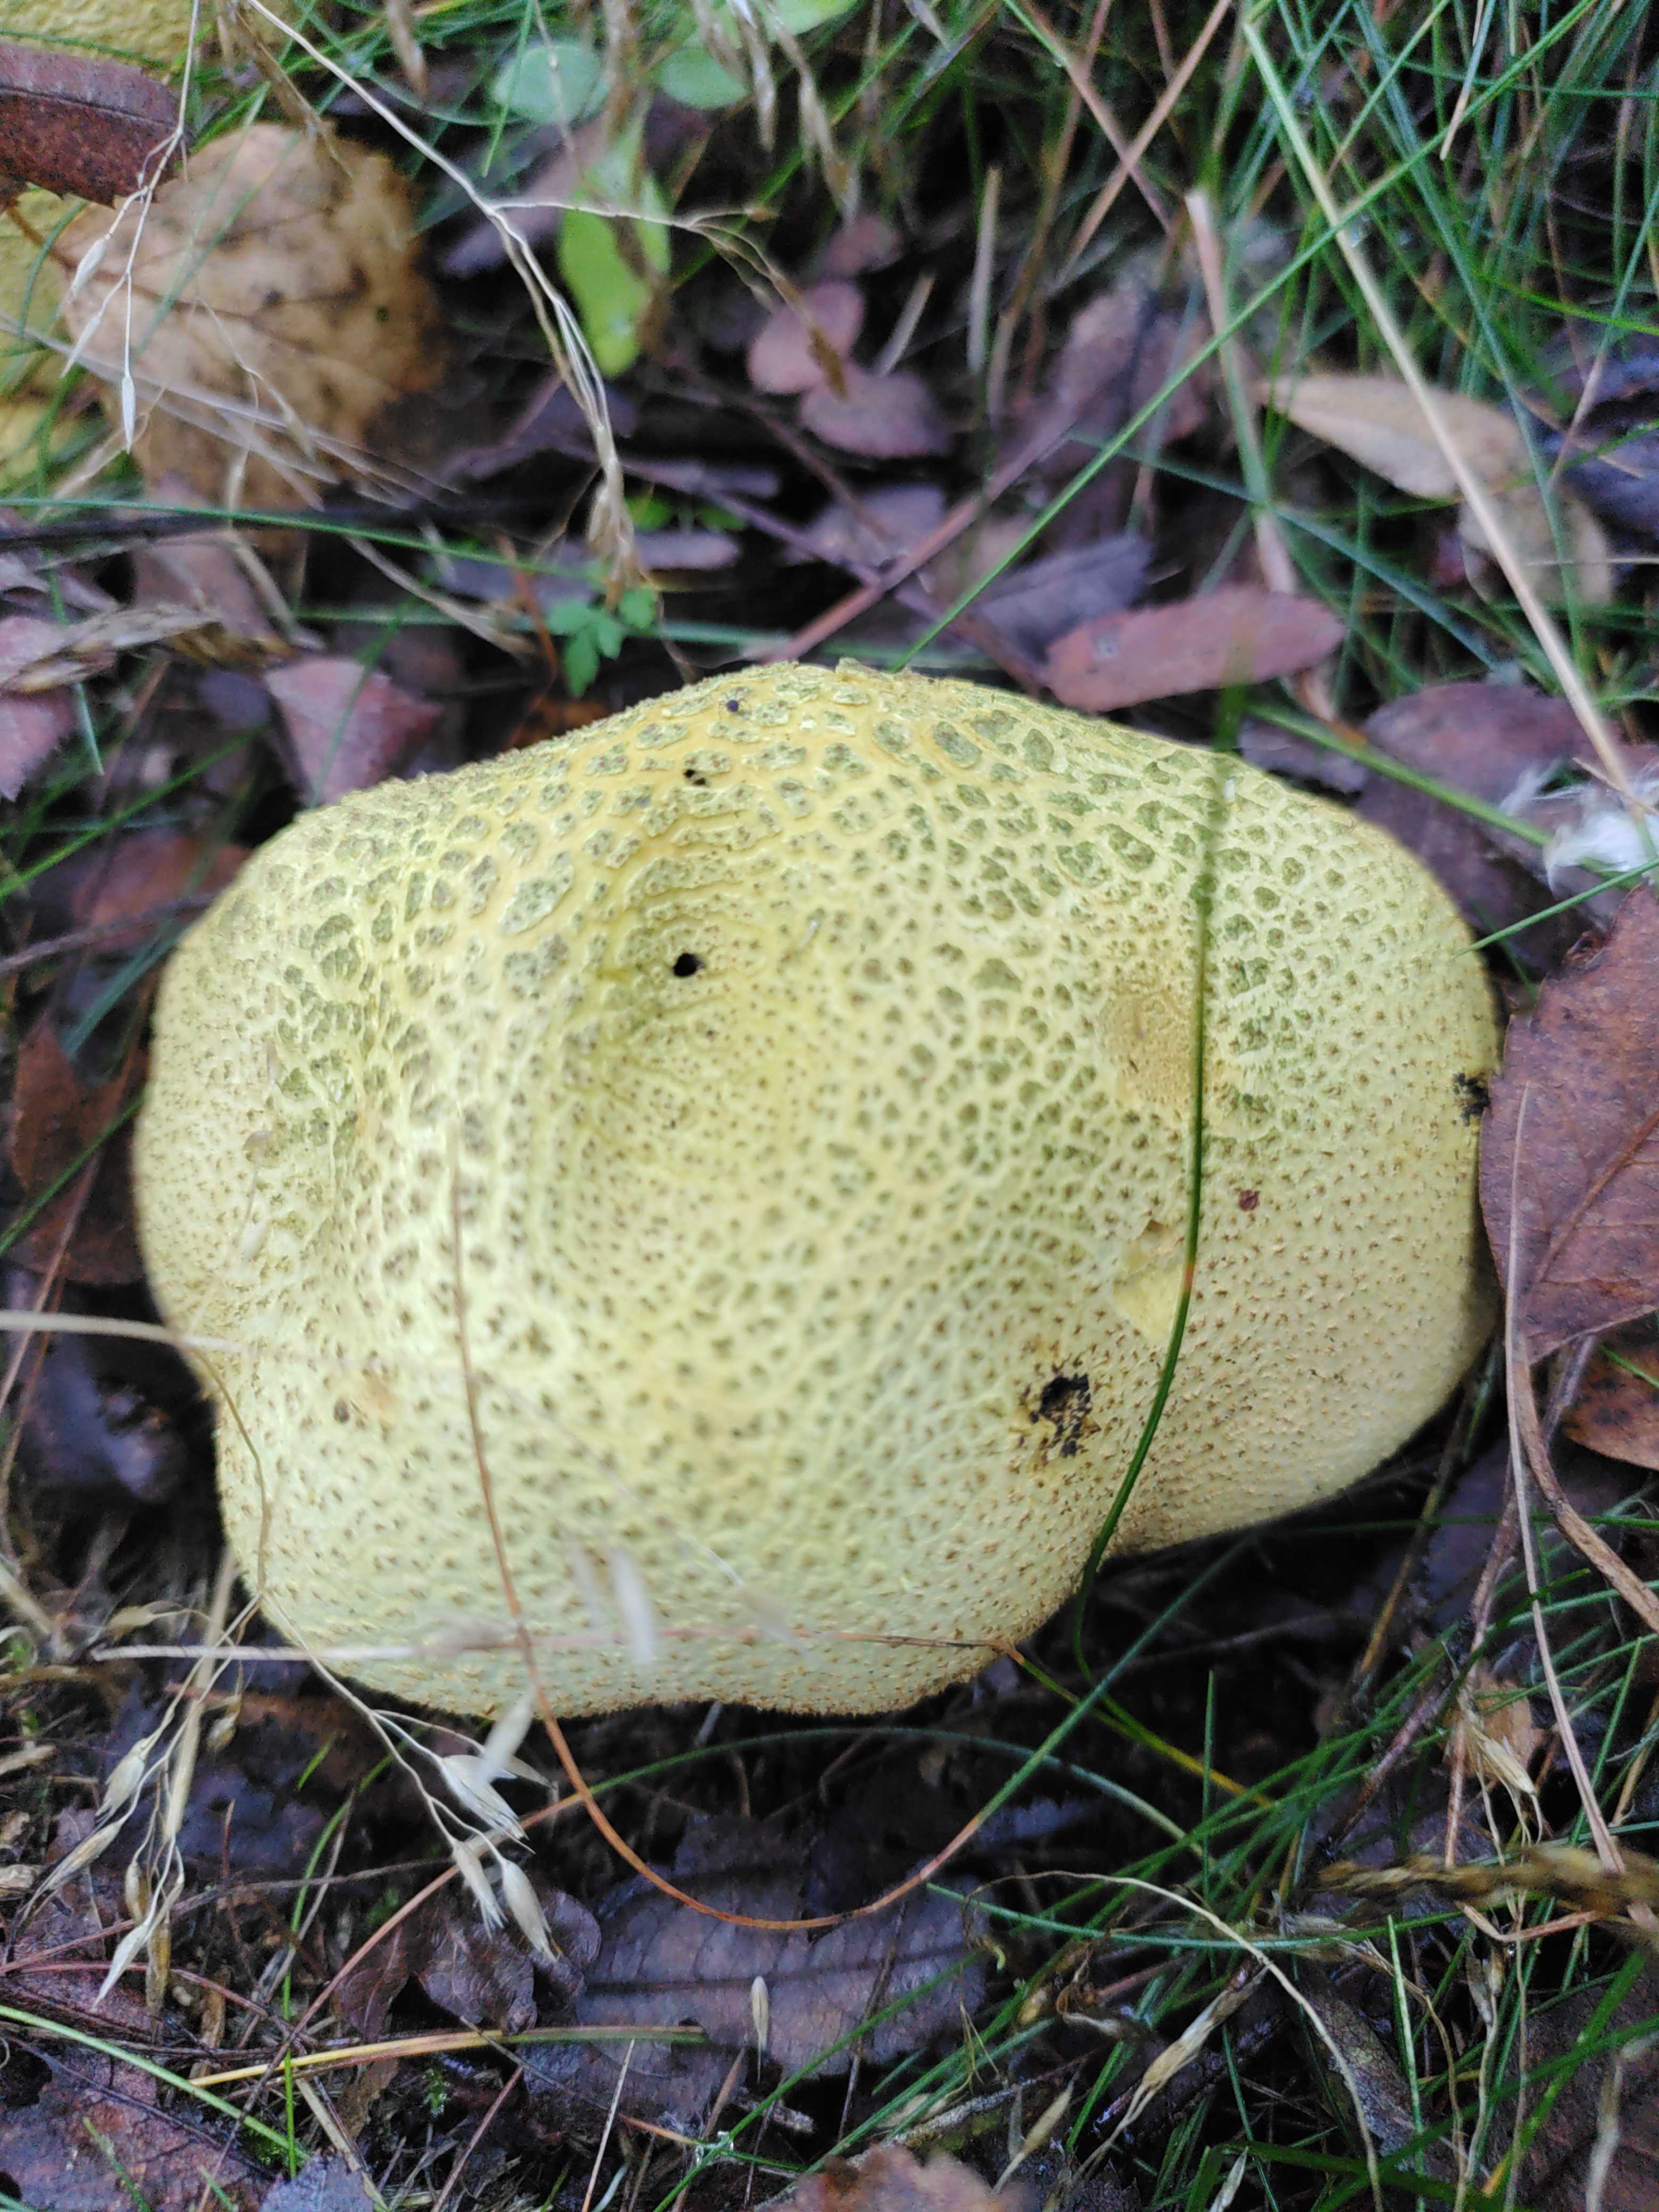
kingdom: Fungi
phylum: Basidiomycota
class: Agaricomycetes
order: Boletales
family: Sclerodermataceae
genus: Scleroderma
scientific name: Scleroderma citrinum
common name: almindelig bruskbold
